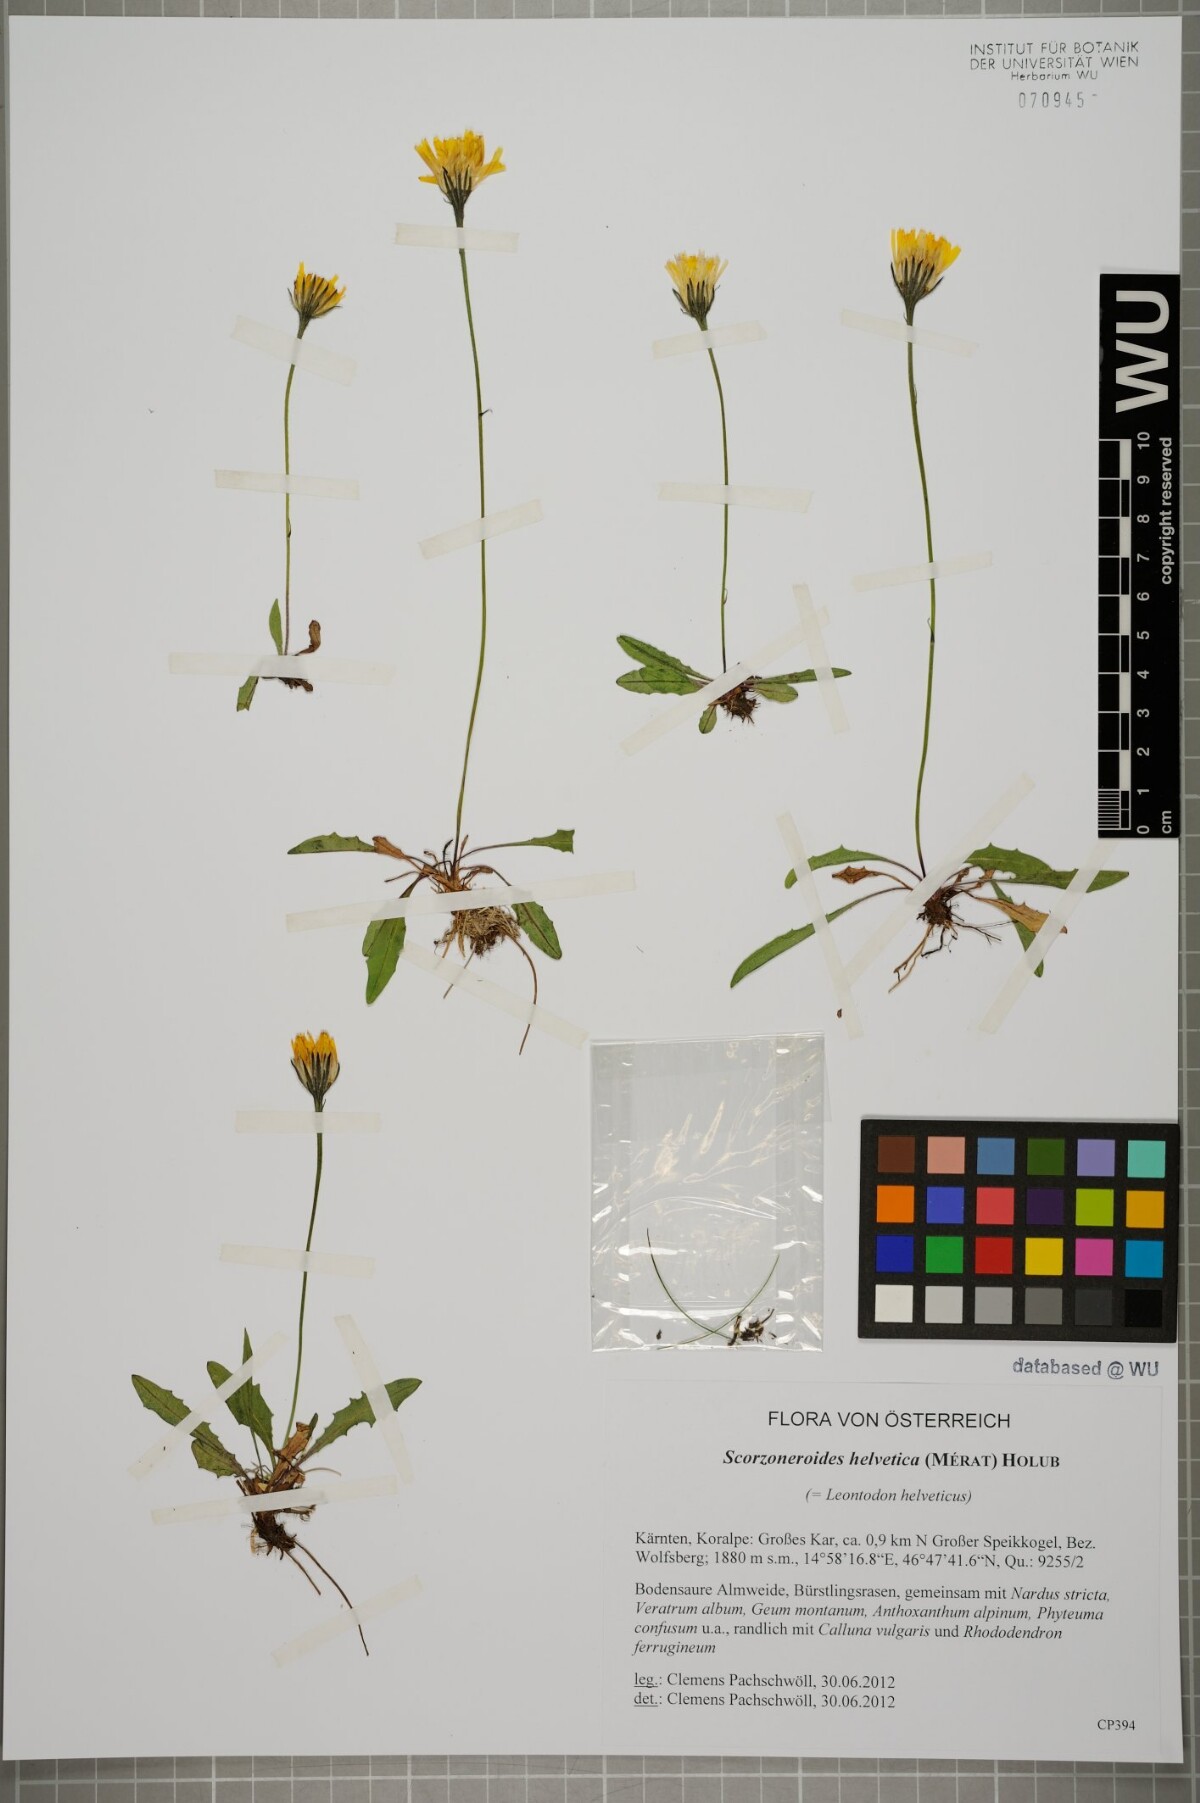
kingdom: Plantae
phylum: Tracheophyta
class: Magnoliopsida
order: Asterales
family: Asteraceae
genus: Scorzoneroides
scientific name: Scorzoneroides helvetica
